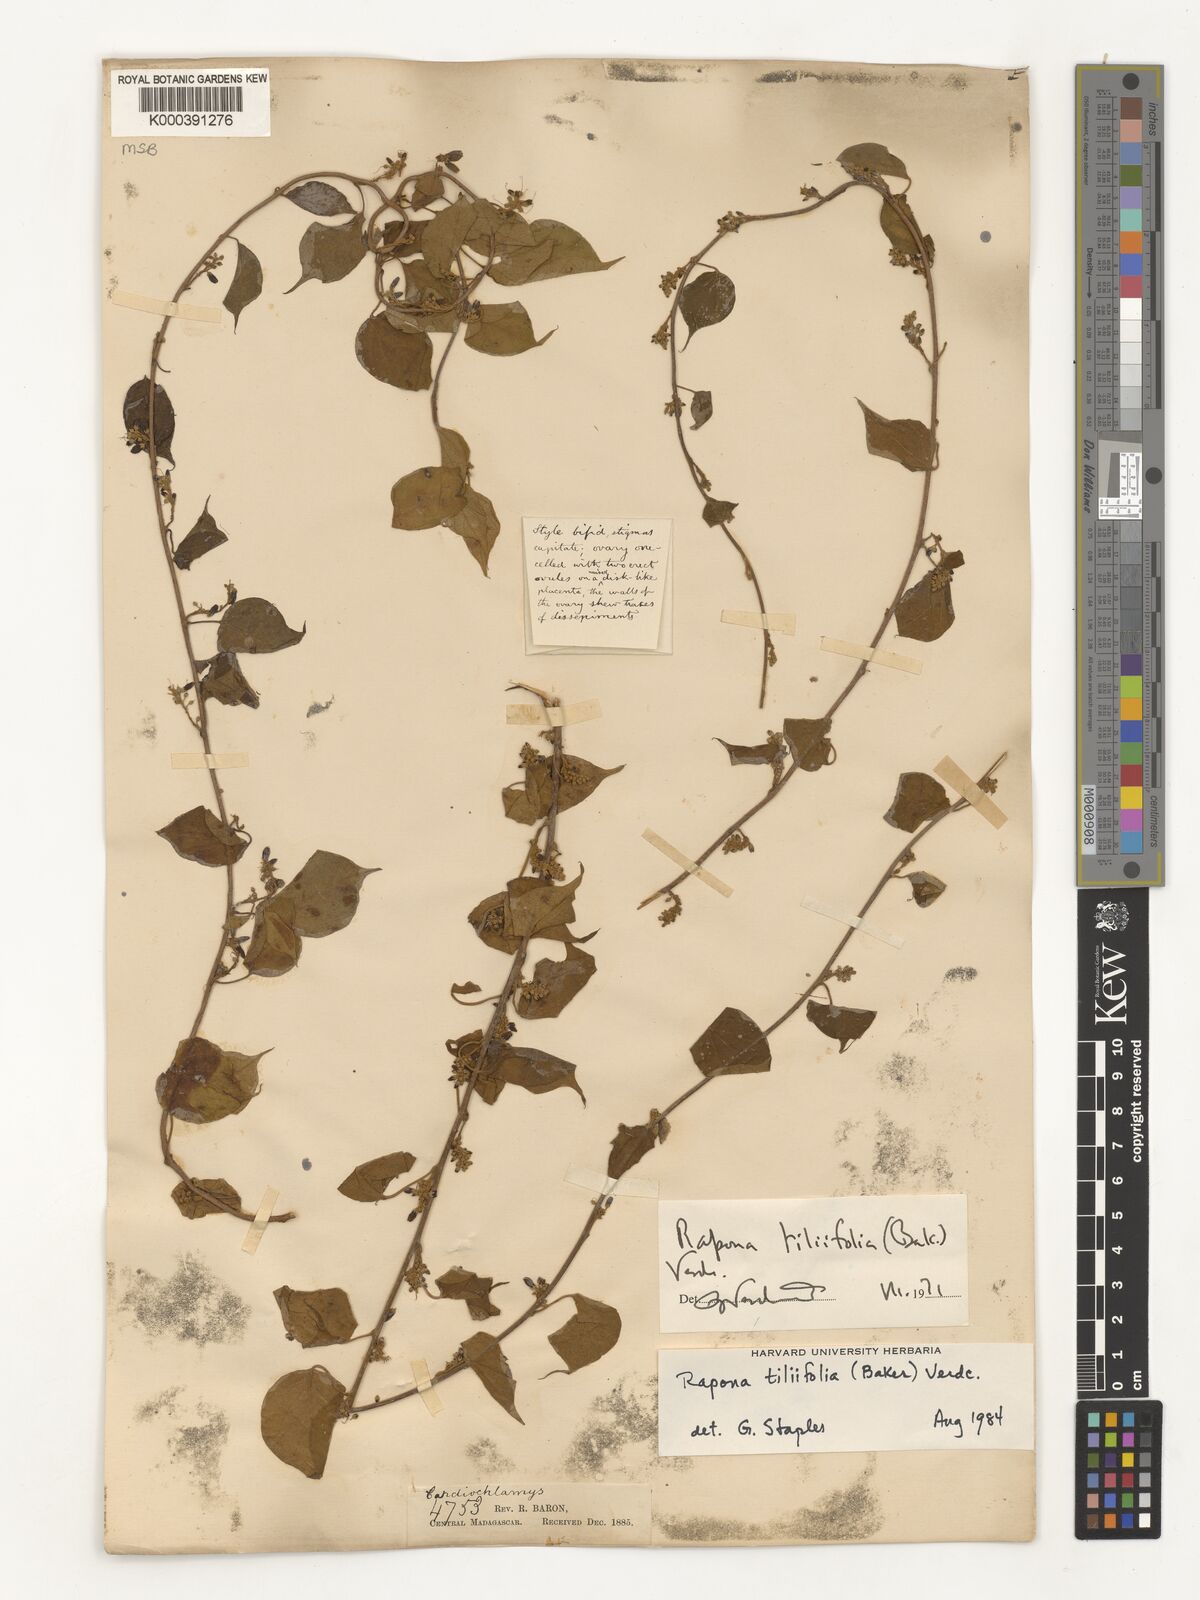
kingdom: Plantae
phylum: Tracheophyta
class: Magnoliopsida
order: Solanales
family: Convolvulaceae
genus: Rapona
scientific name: Rapona tiliifolia
